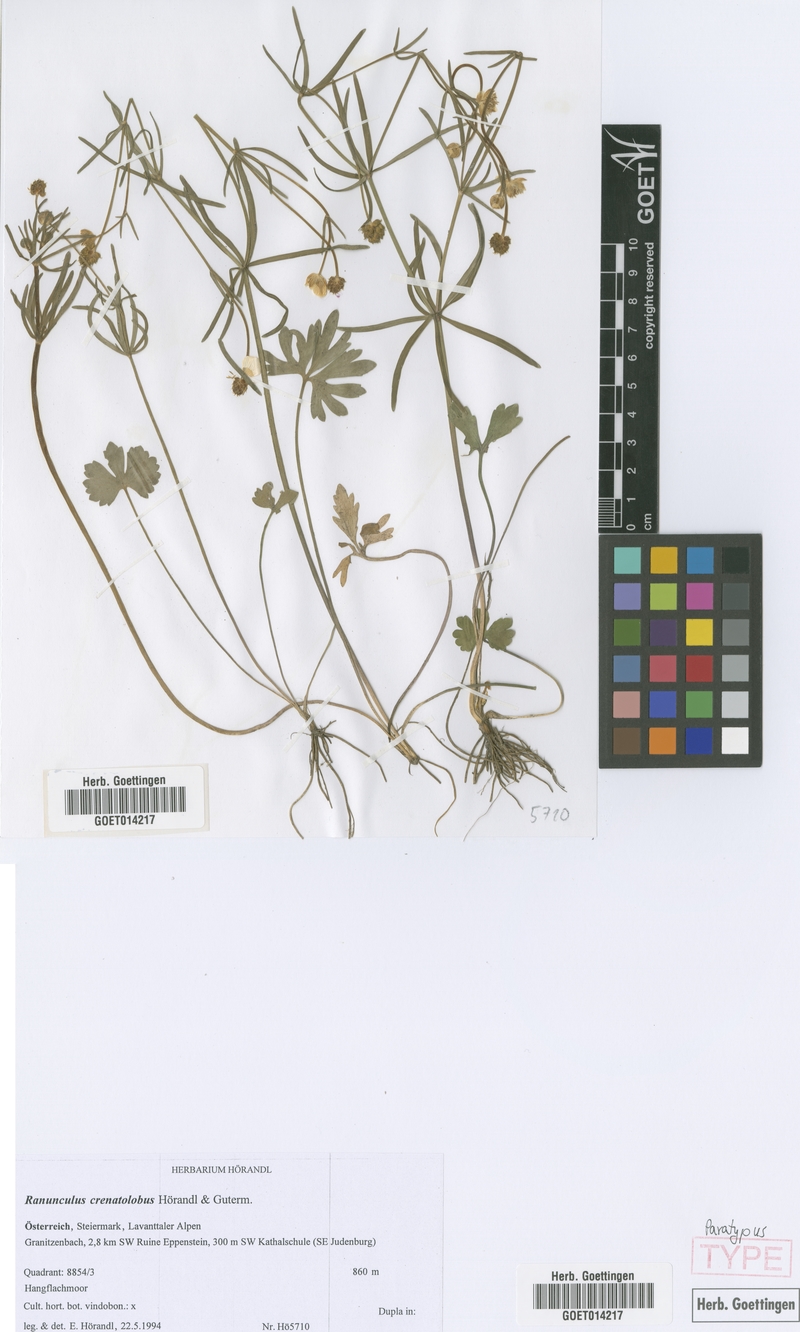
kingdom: Plantae
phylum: Tracheophyta
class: Magnoliopsida
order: Ranunculales
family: Ranunculaceae
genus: Ranunculus
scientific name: Ranunculus crenatolobus
